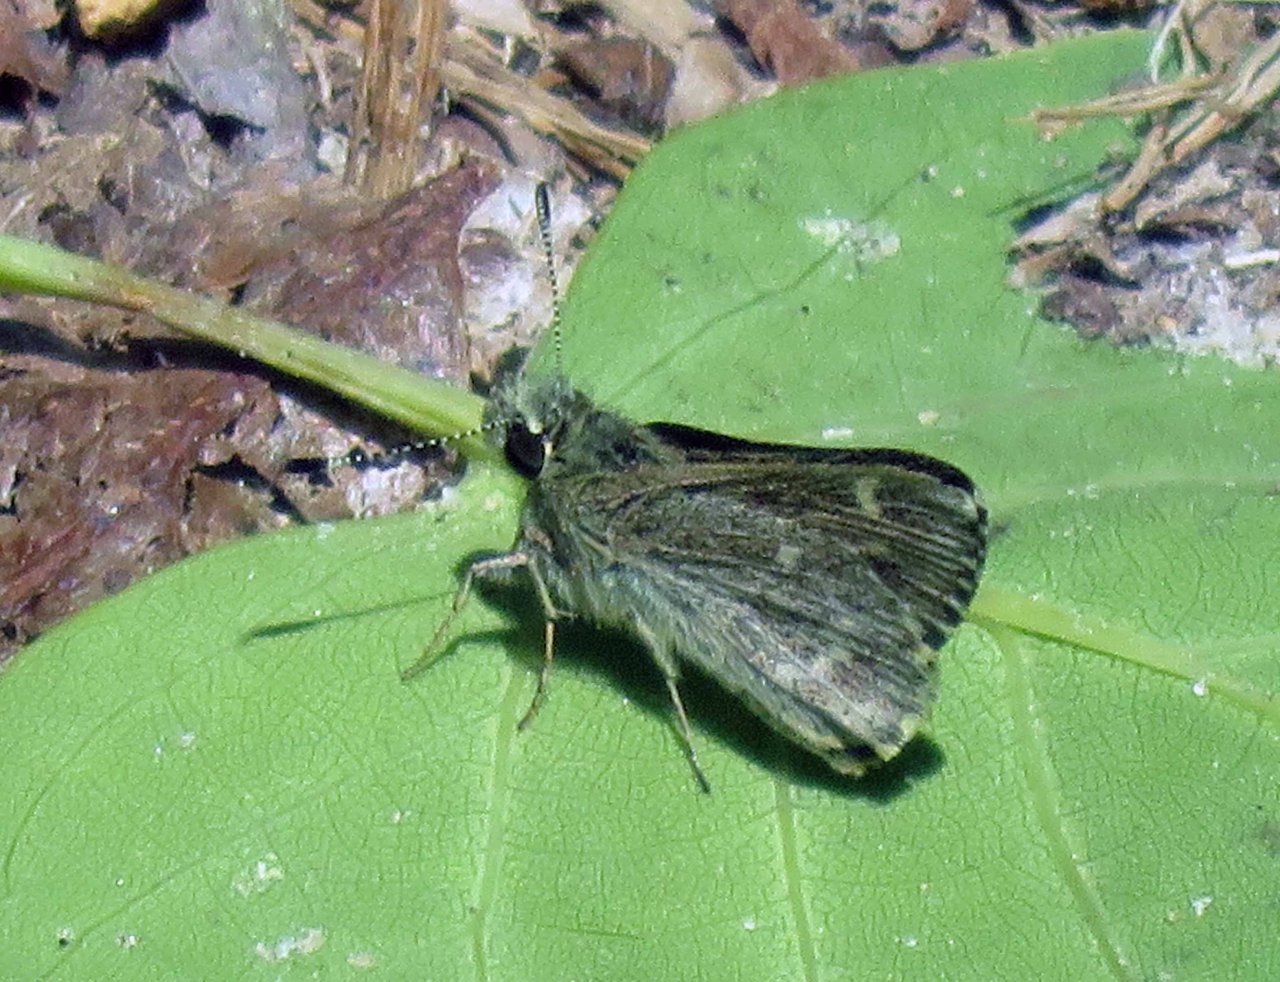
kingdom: Animalia
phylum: Arthropoda
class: Insecta
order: Lepidoptera
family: Hesperiidae
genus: Mastor
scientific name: Mastor hegon
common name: Pepper and Salt Skipper
